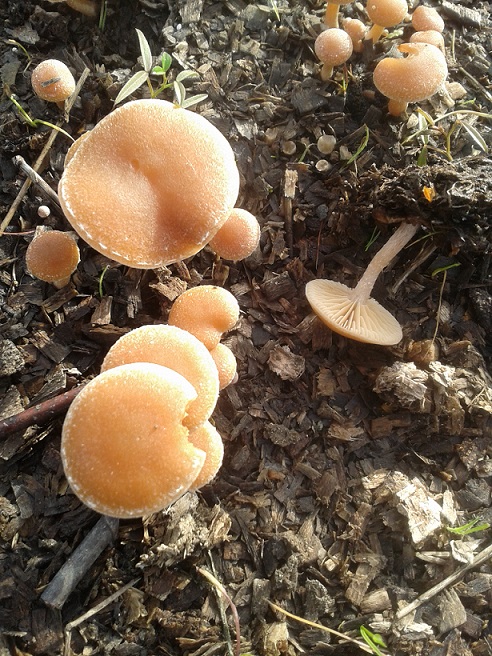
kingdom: Fungi
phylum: Basidiomycota
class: Agaricomycetes
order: Agaricales
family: Tubariaceae
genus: Tubaria
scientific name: Tubaria furfuracea
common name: kliddet fnughat
